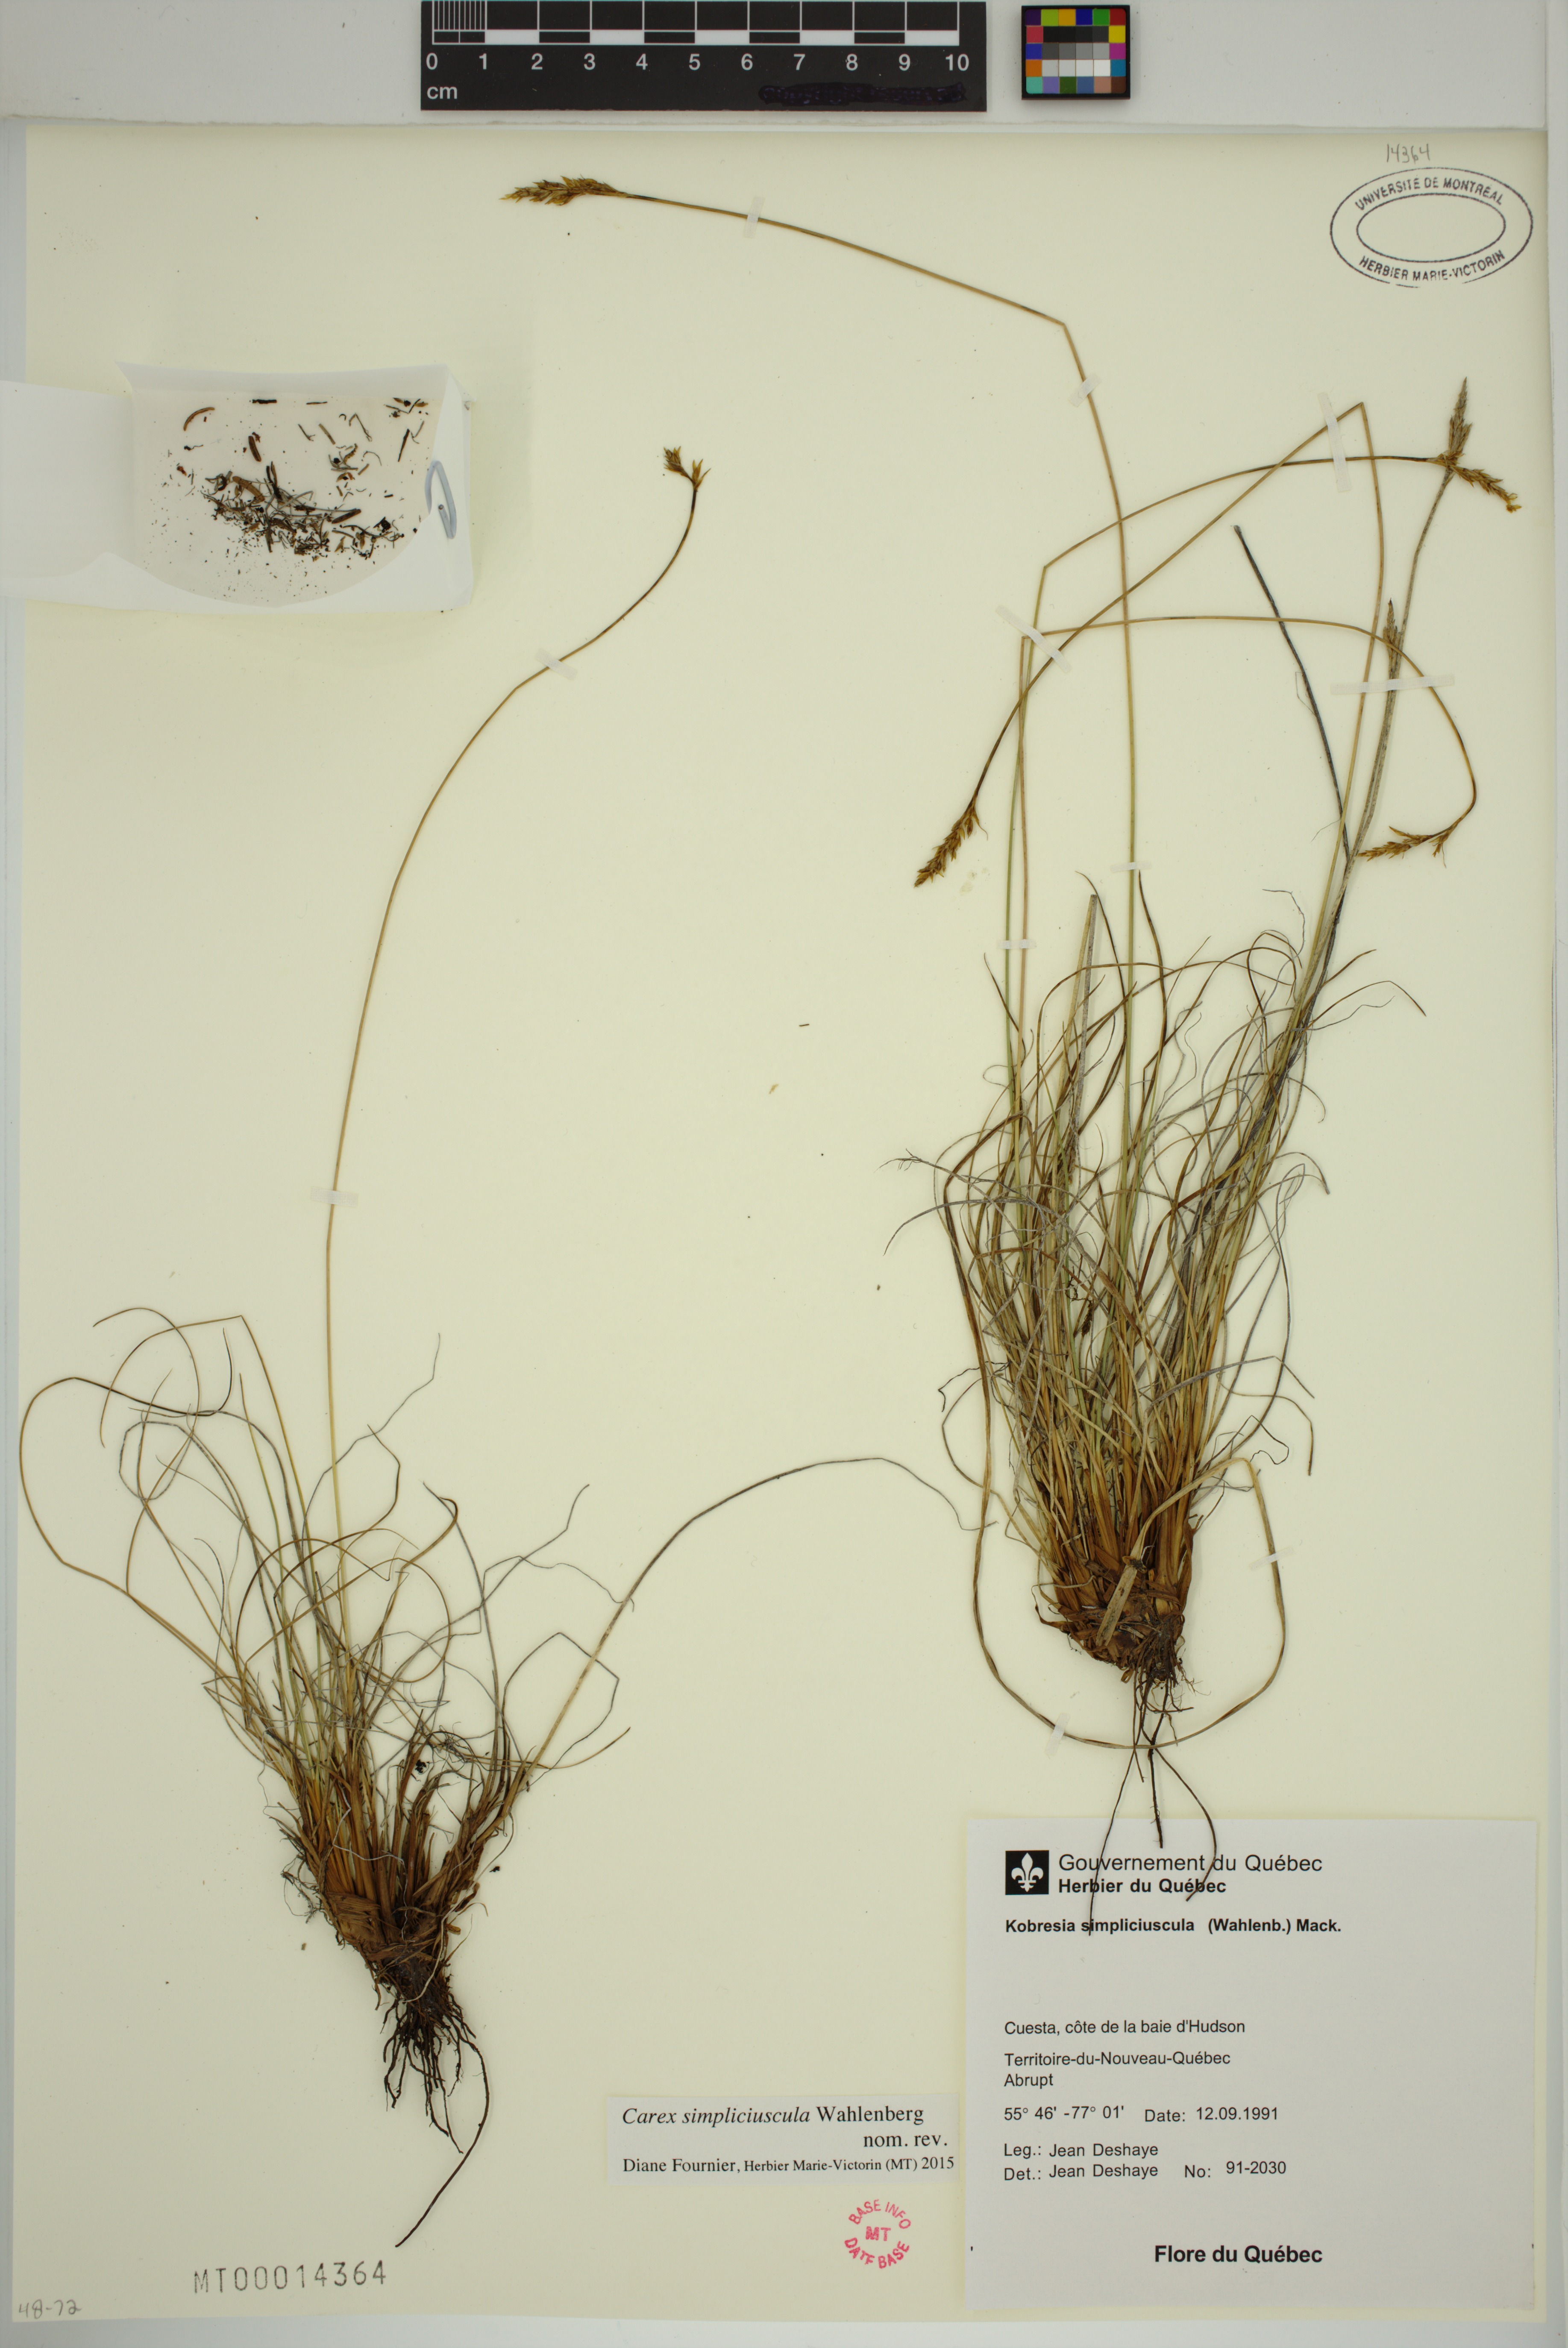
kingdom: Plantae
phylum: Tracheophyta
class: Liliopsida
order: Poales
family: Cyperaceae
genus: Carex
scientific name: Carex simpliciuscula
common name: Simple bog sedge
